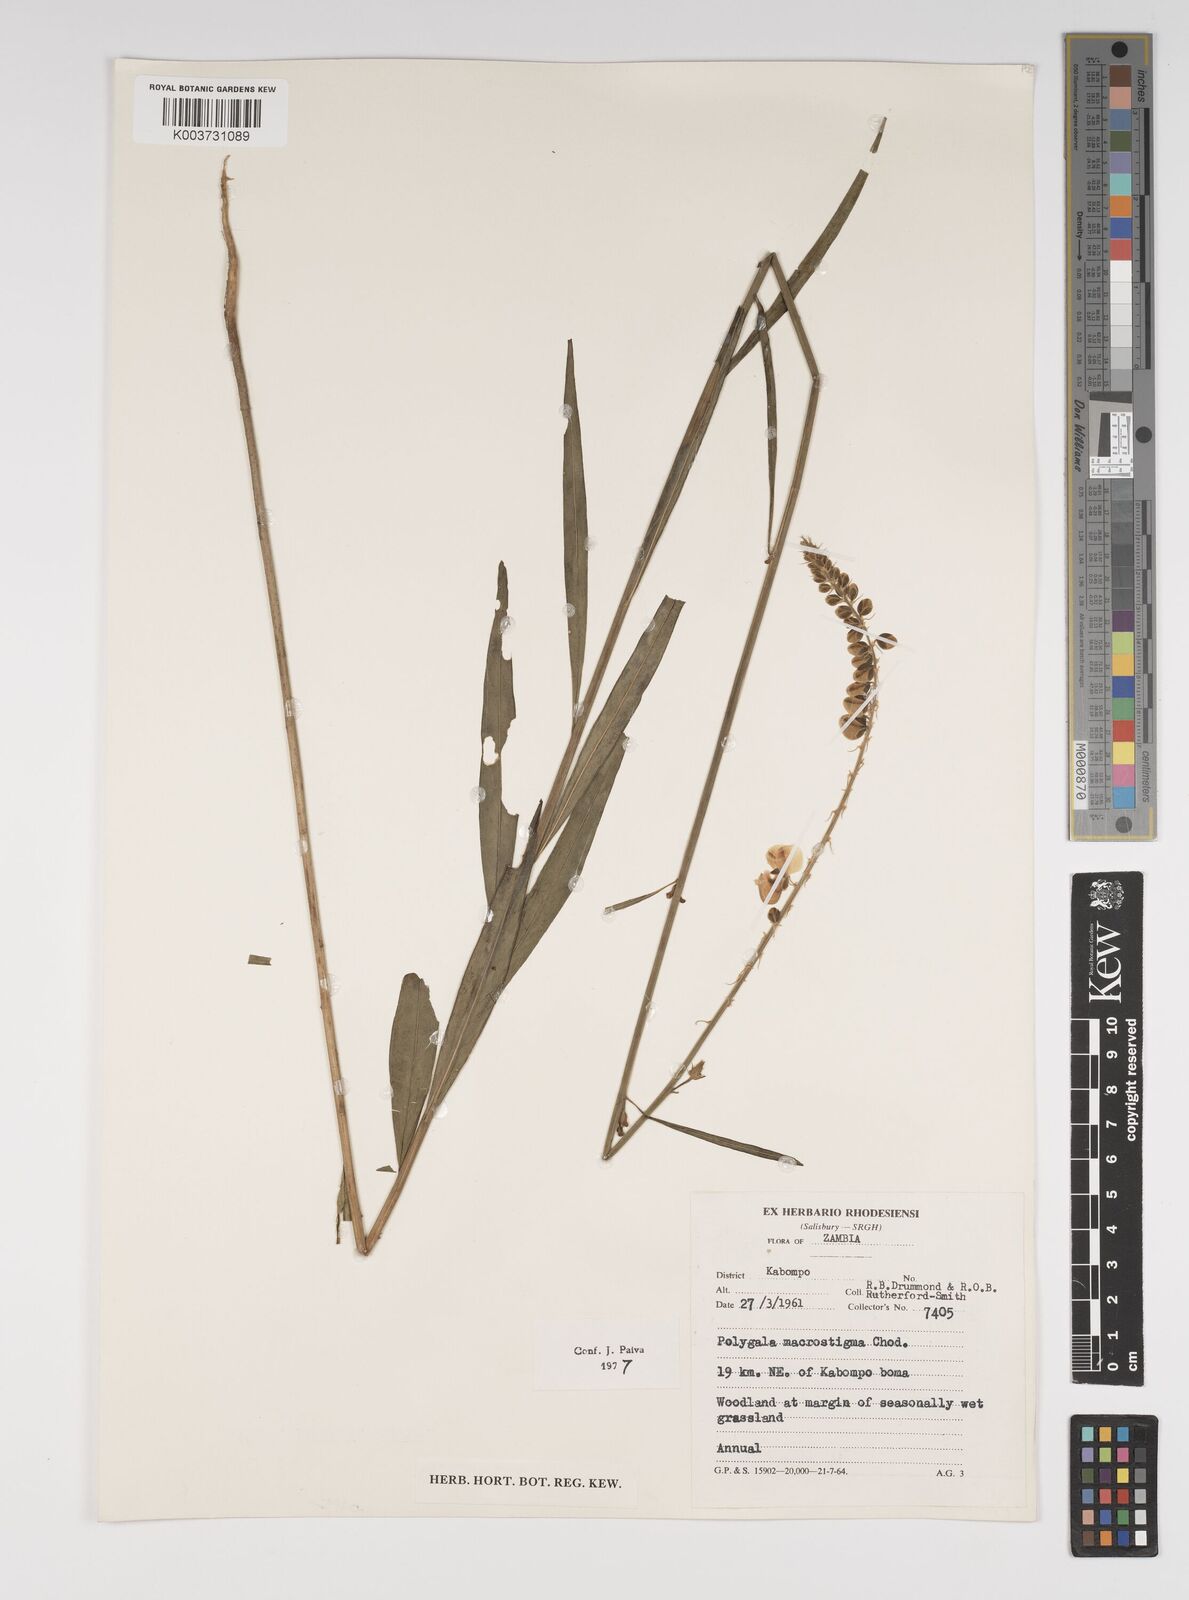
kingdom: Plantae
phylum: Tracheophyta
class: Magnoliopsida
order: Fabales
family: Polygalaceae
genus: Polygala
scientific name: Polygala macrostigma
